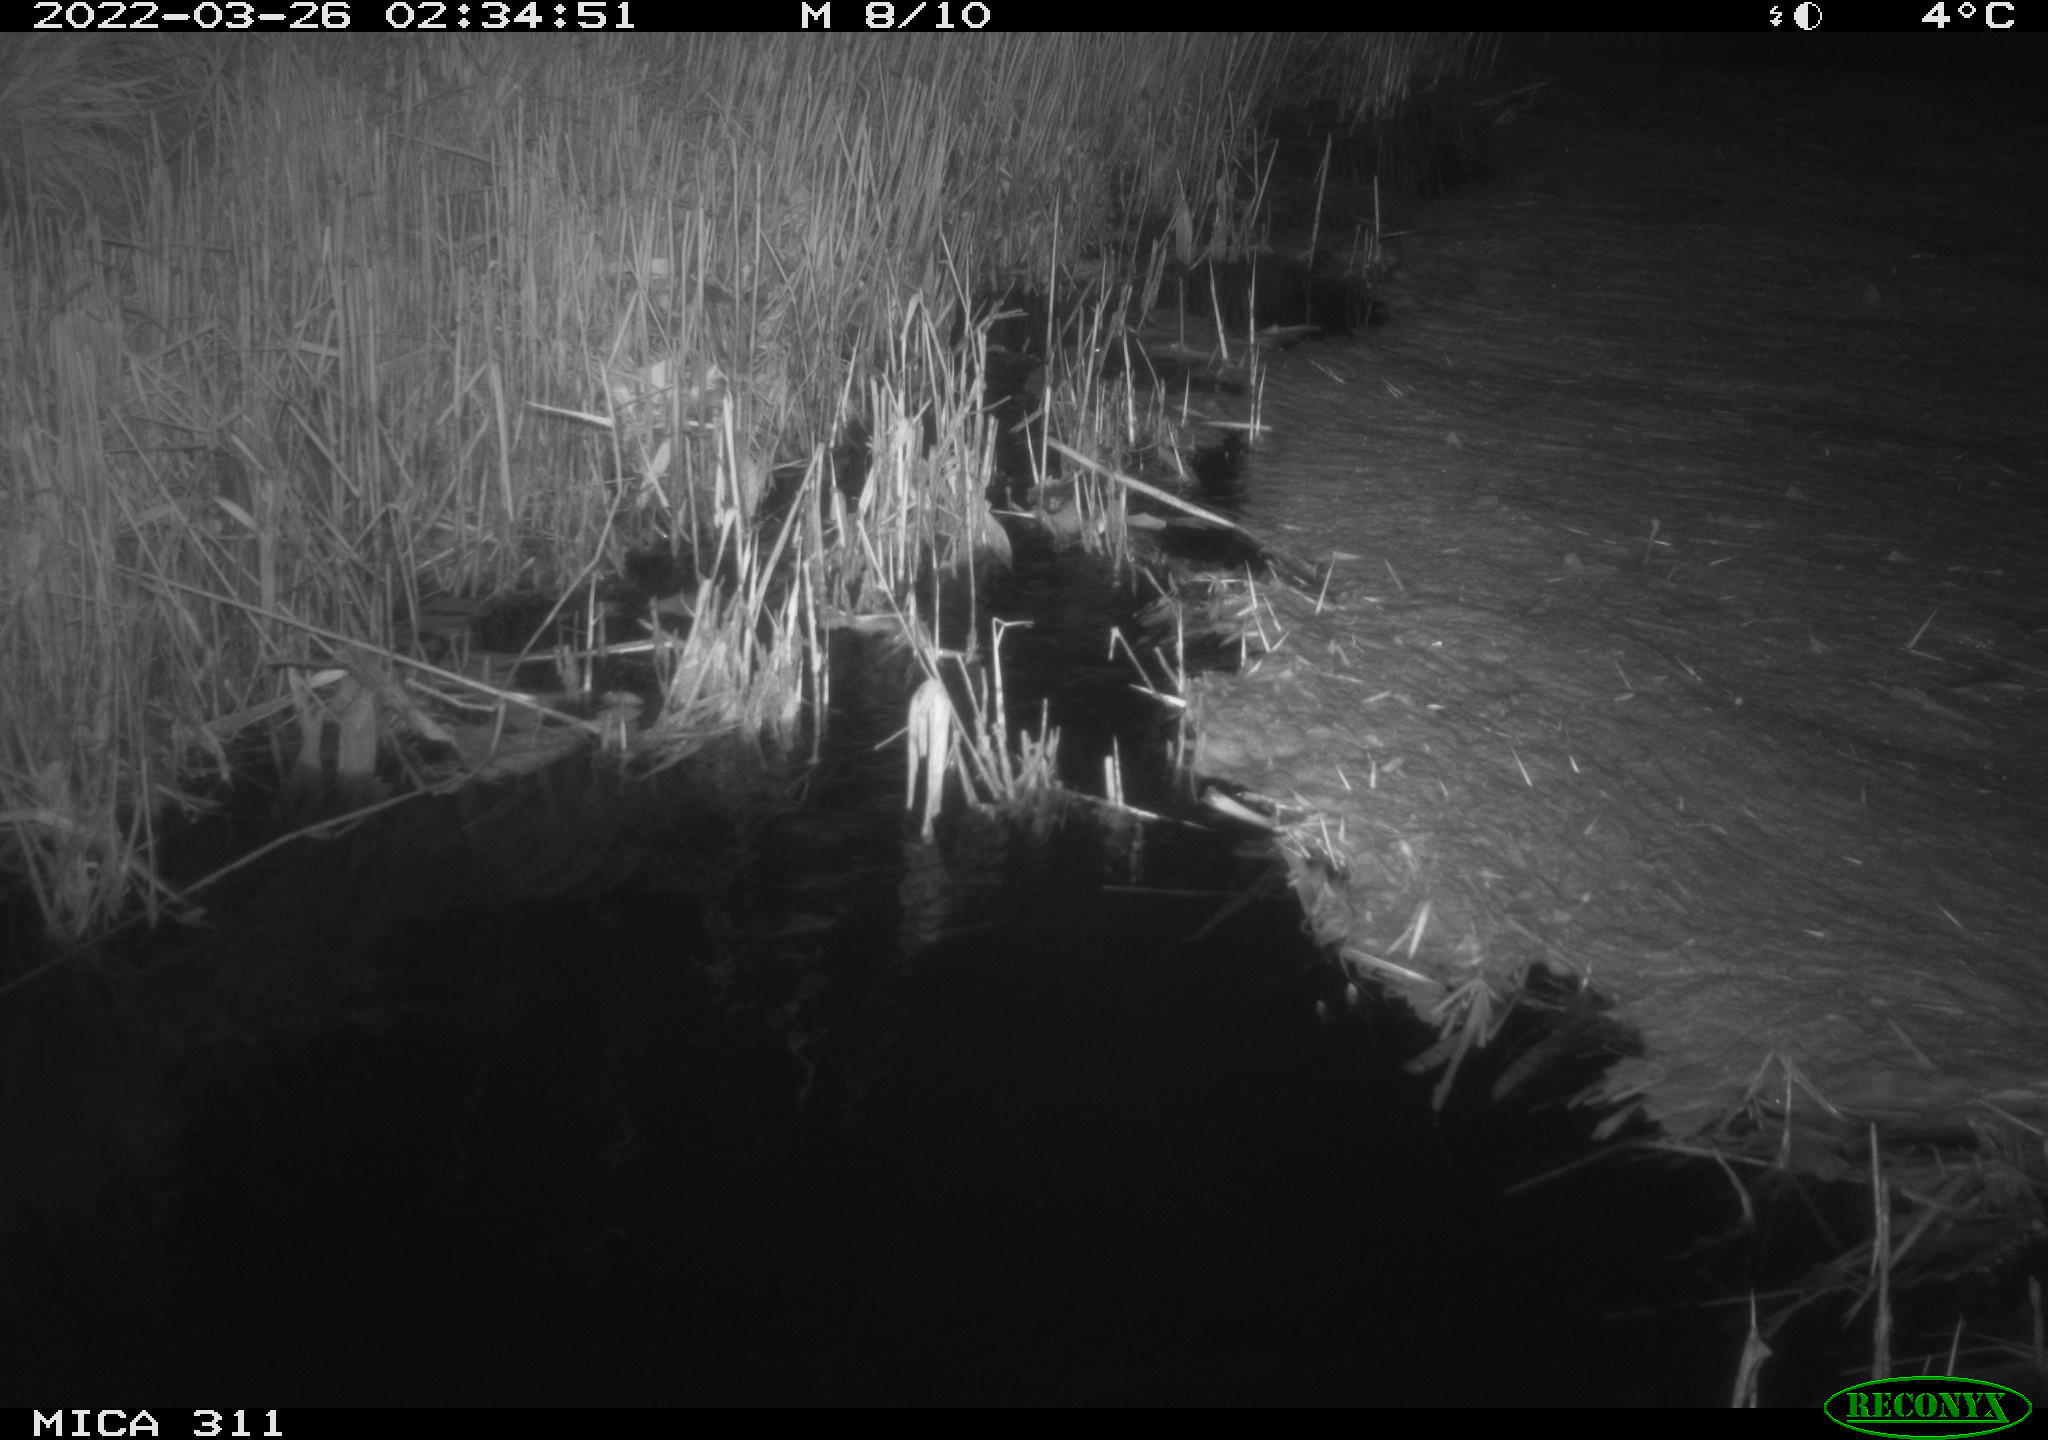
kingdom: Animalia
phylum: Chordata
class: Mammalia
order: Rodentia
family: Cricetidae
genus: Ondatra
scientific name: Ondatra zibethicus
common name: Muskrat
